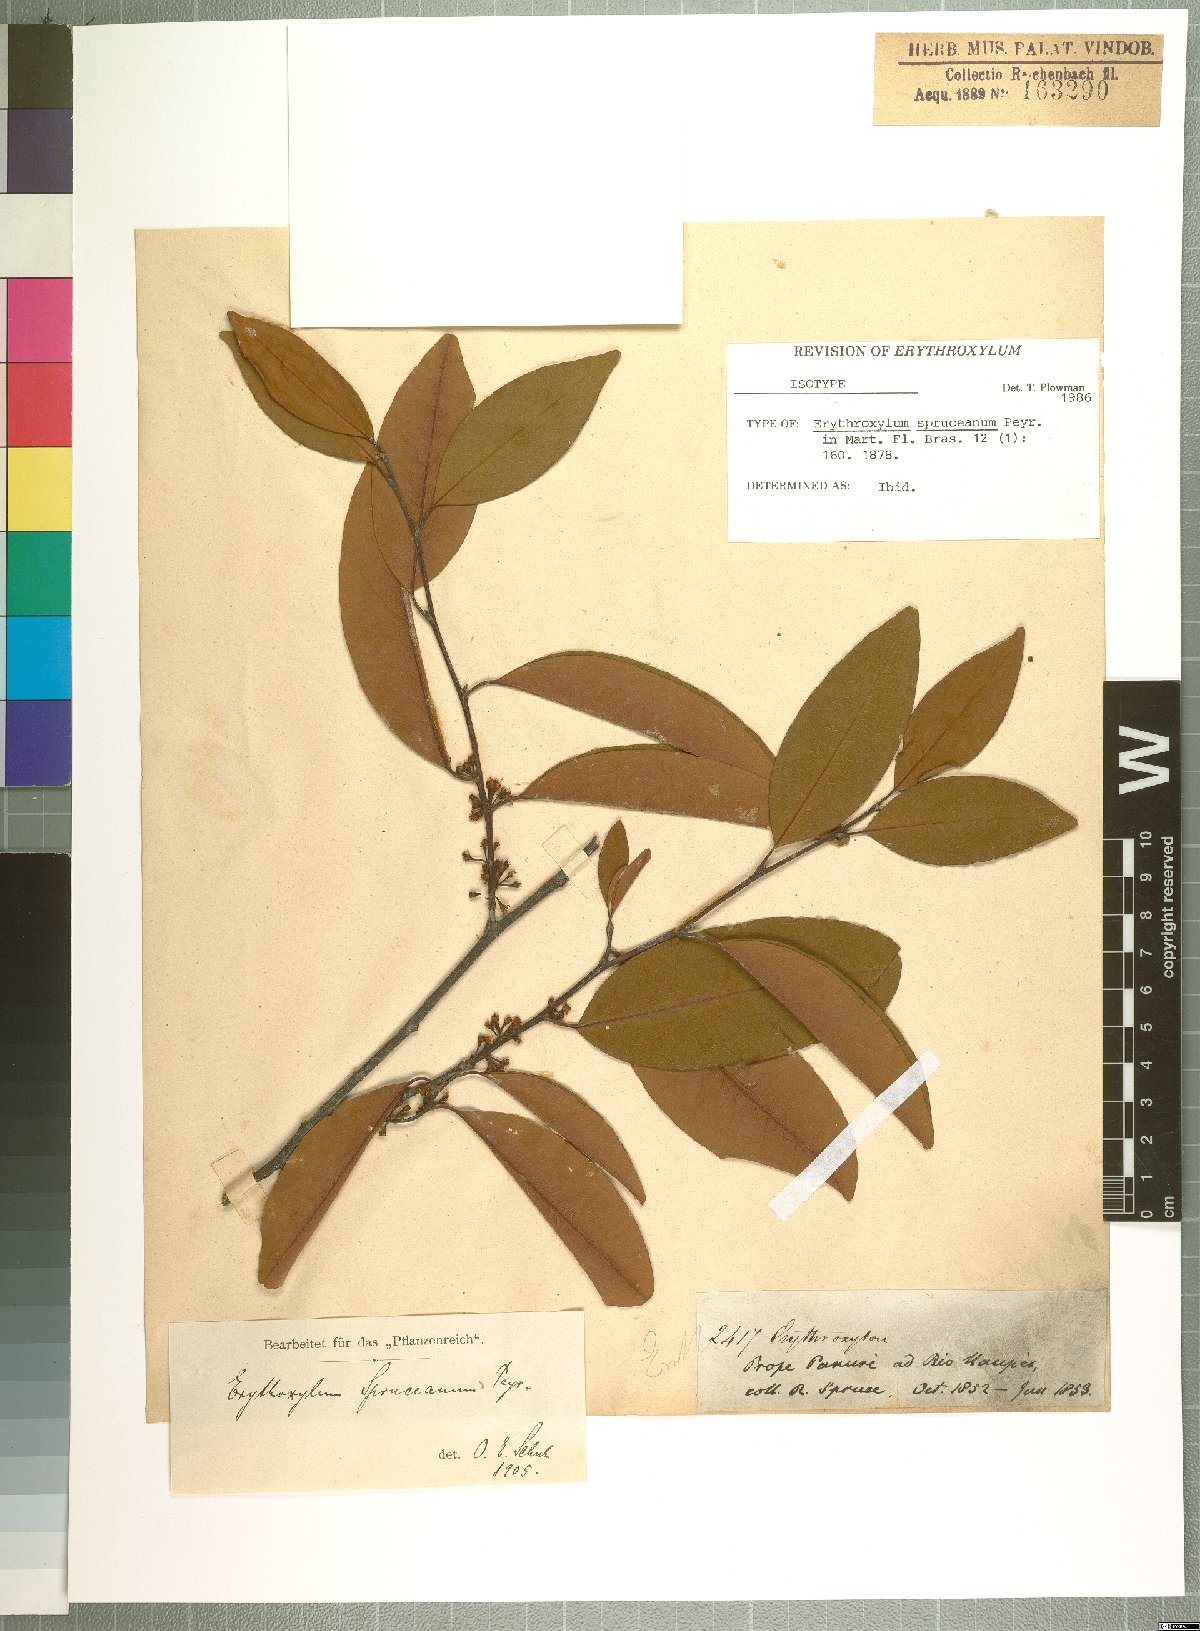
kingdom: Plantae
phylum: Tracheophyta
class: Magnoliopsida
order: Malpighiales
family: Erythroxylaceae
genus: Erythroxylum
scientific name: Erythroxylum spruceanum
